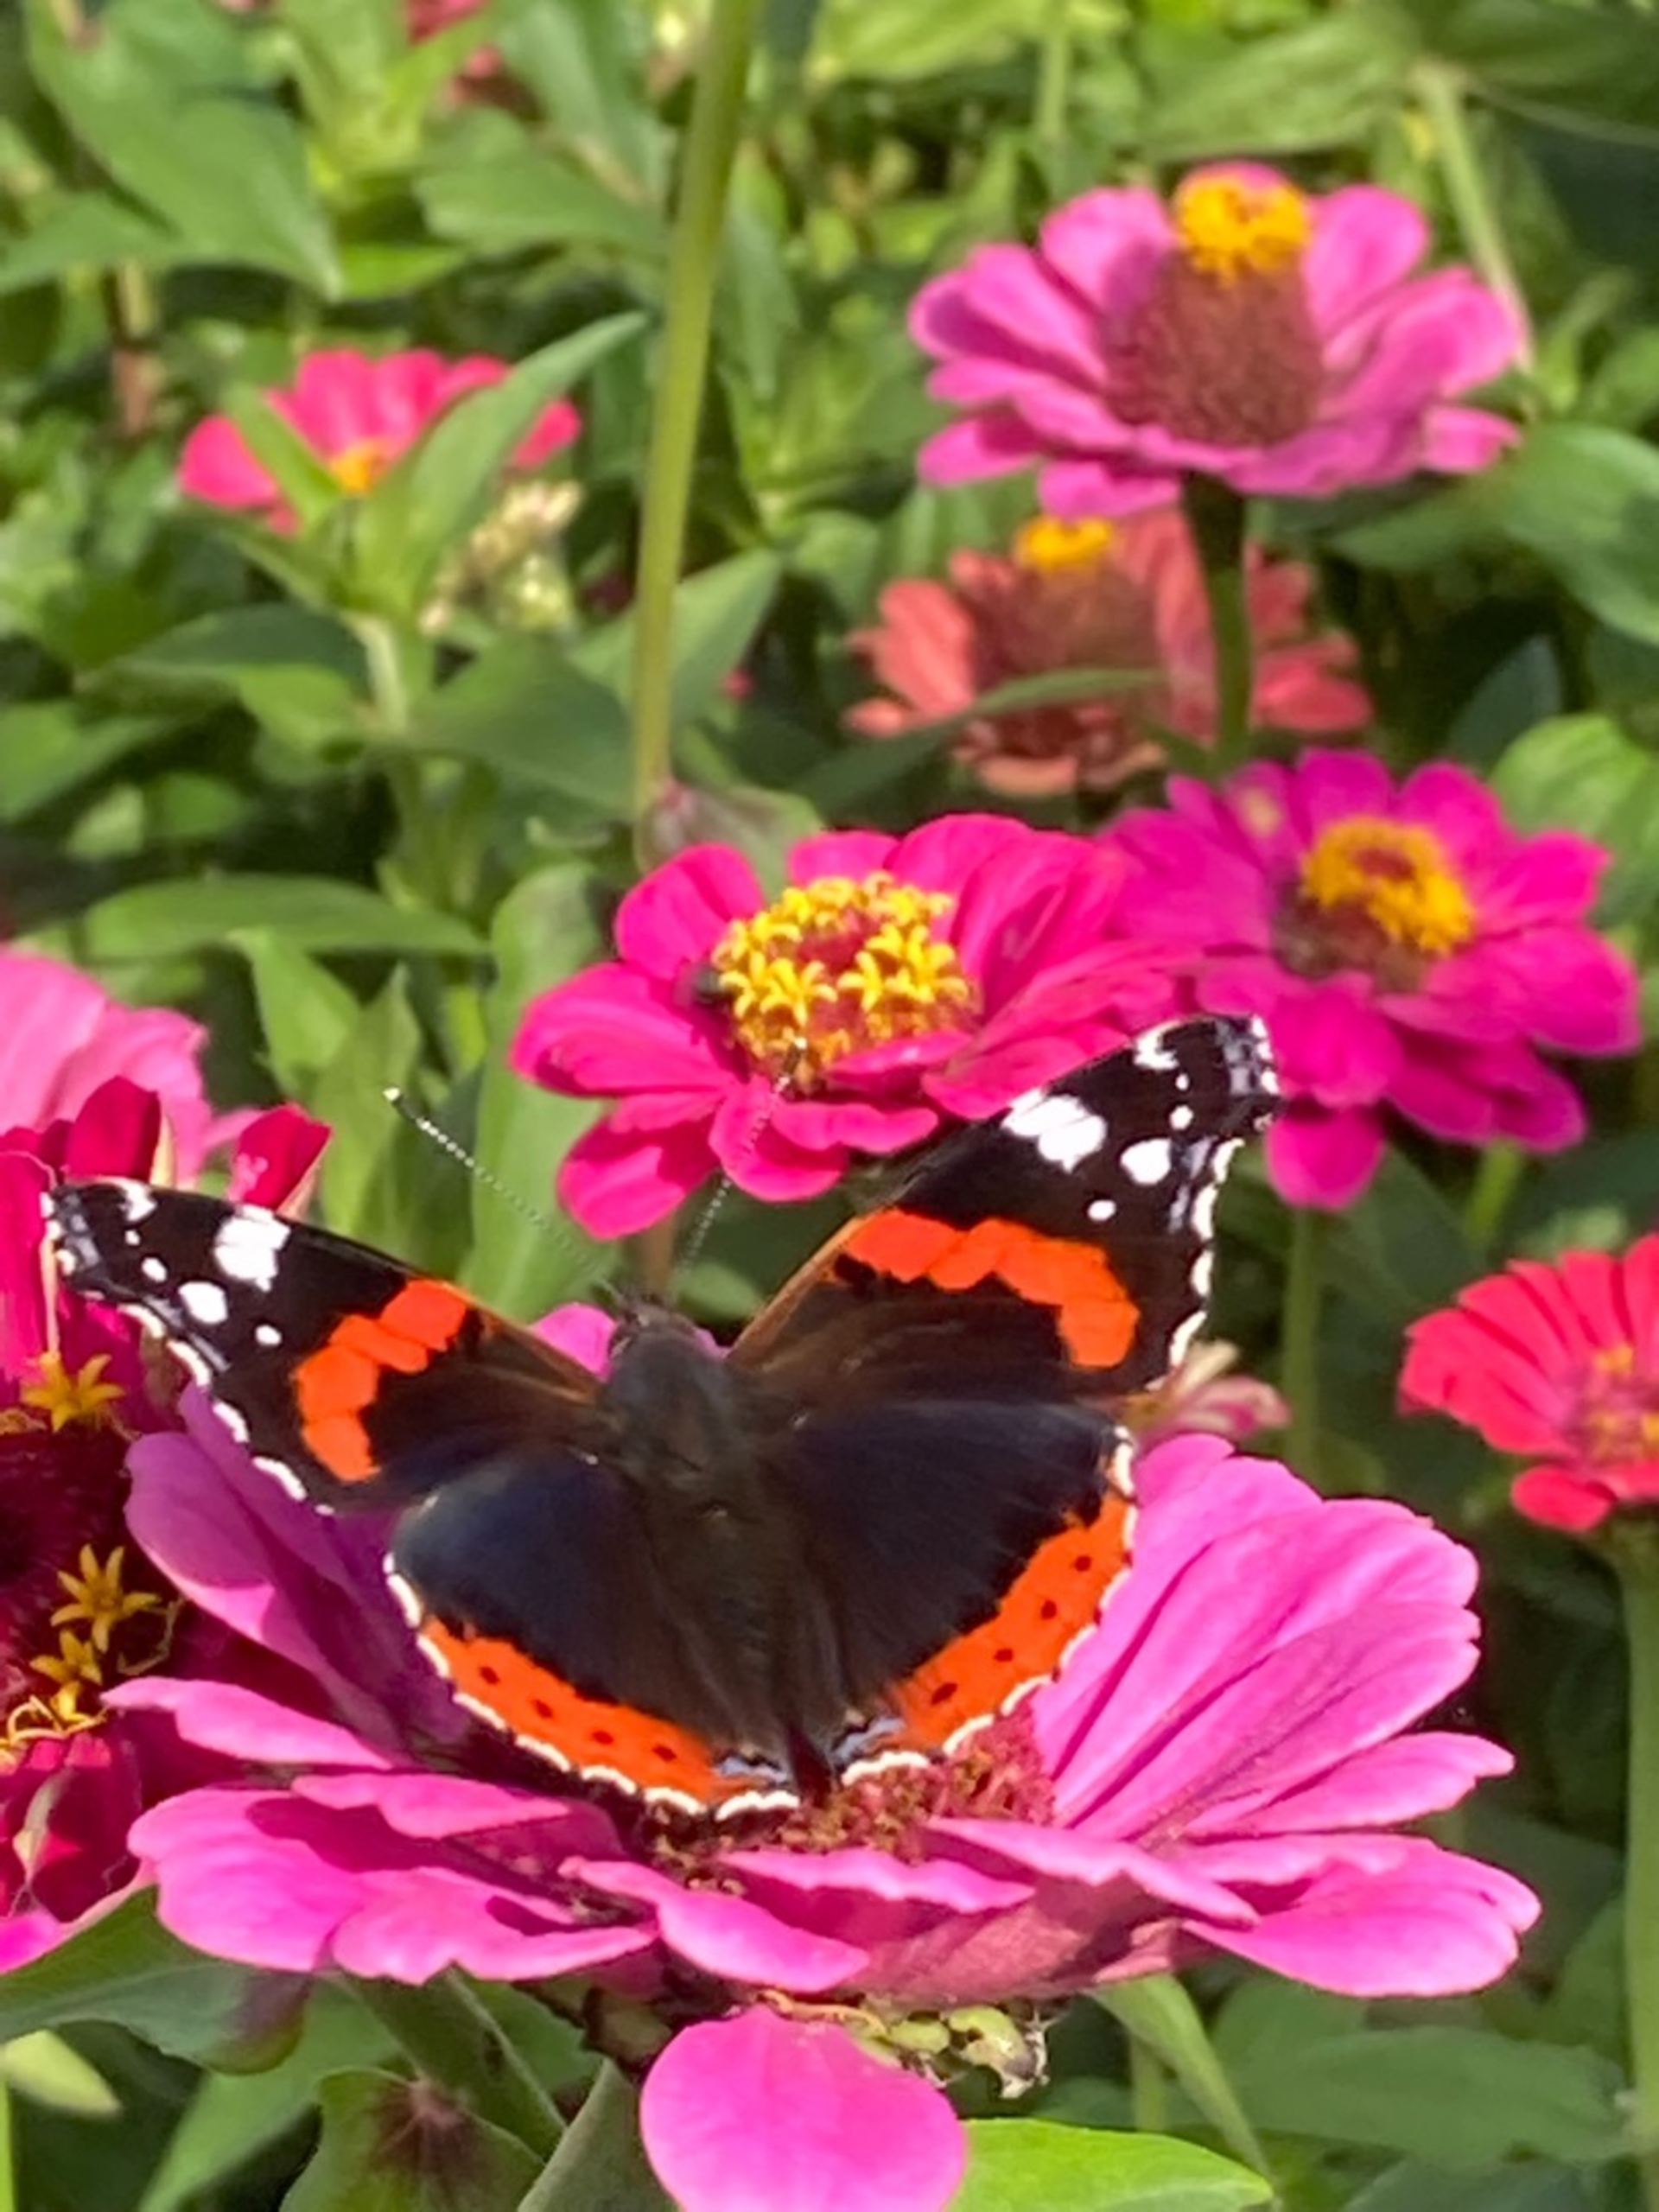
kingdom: Animalia
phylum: Arthropoda
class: Insecta
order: Lepidoptera
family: Nymphalidae
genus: Vanessa
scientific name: Vanessa atalanta
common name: Admiral
